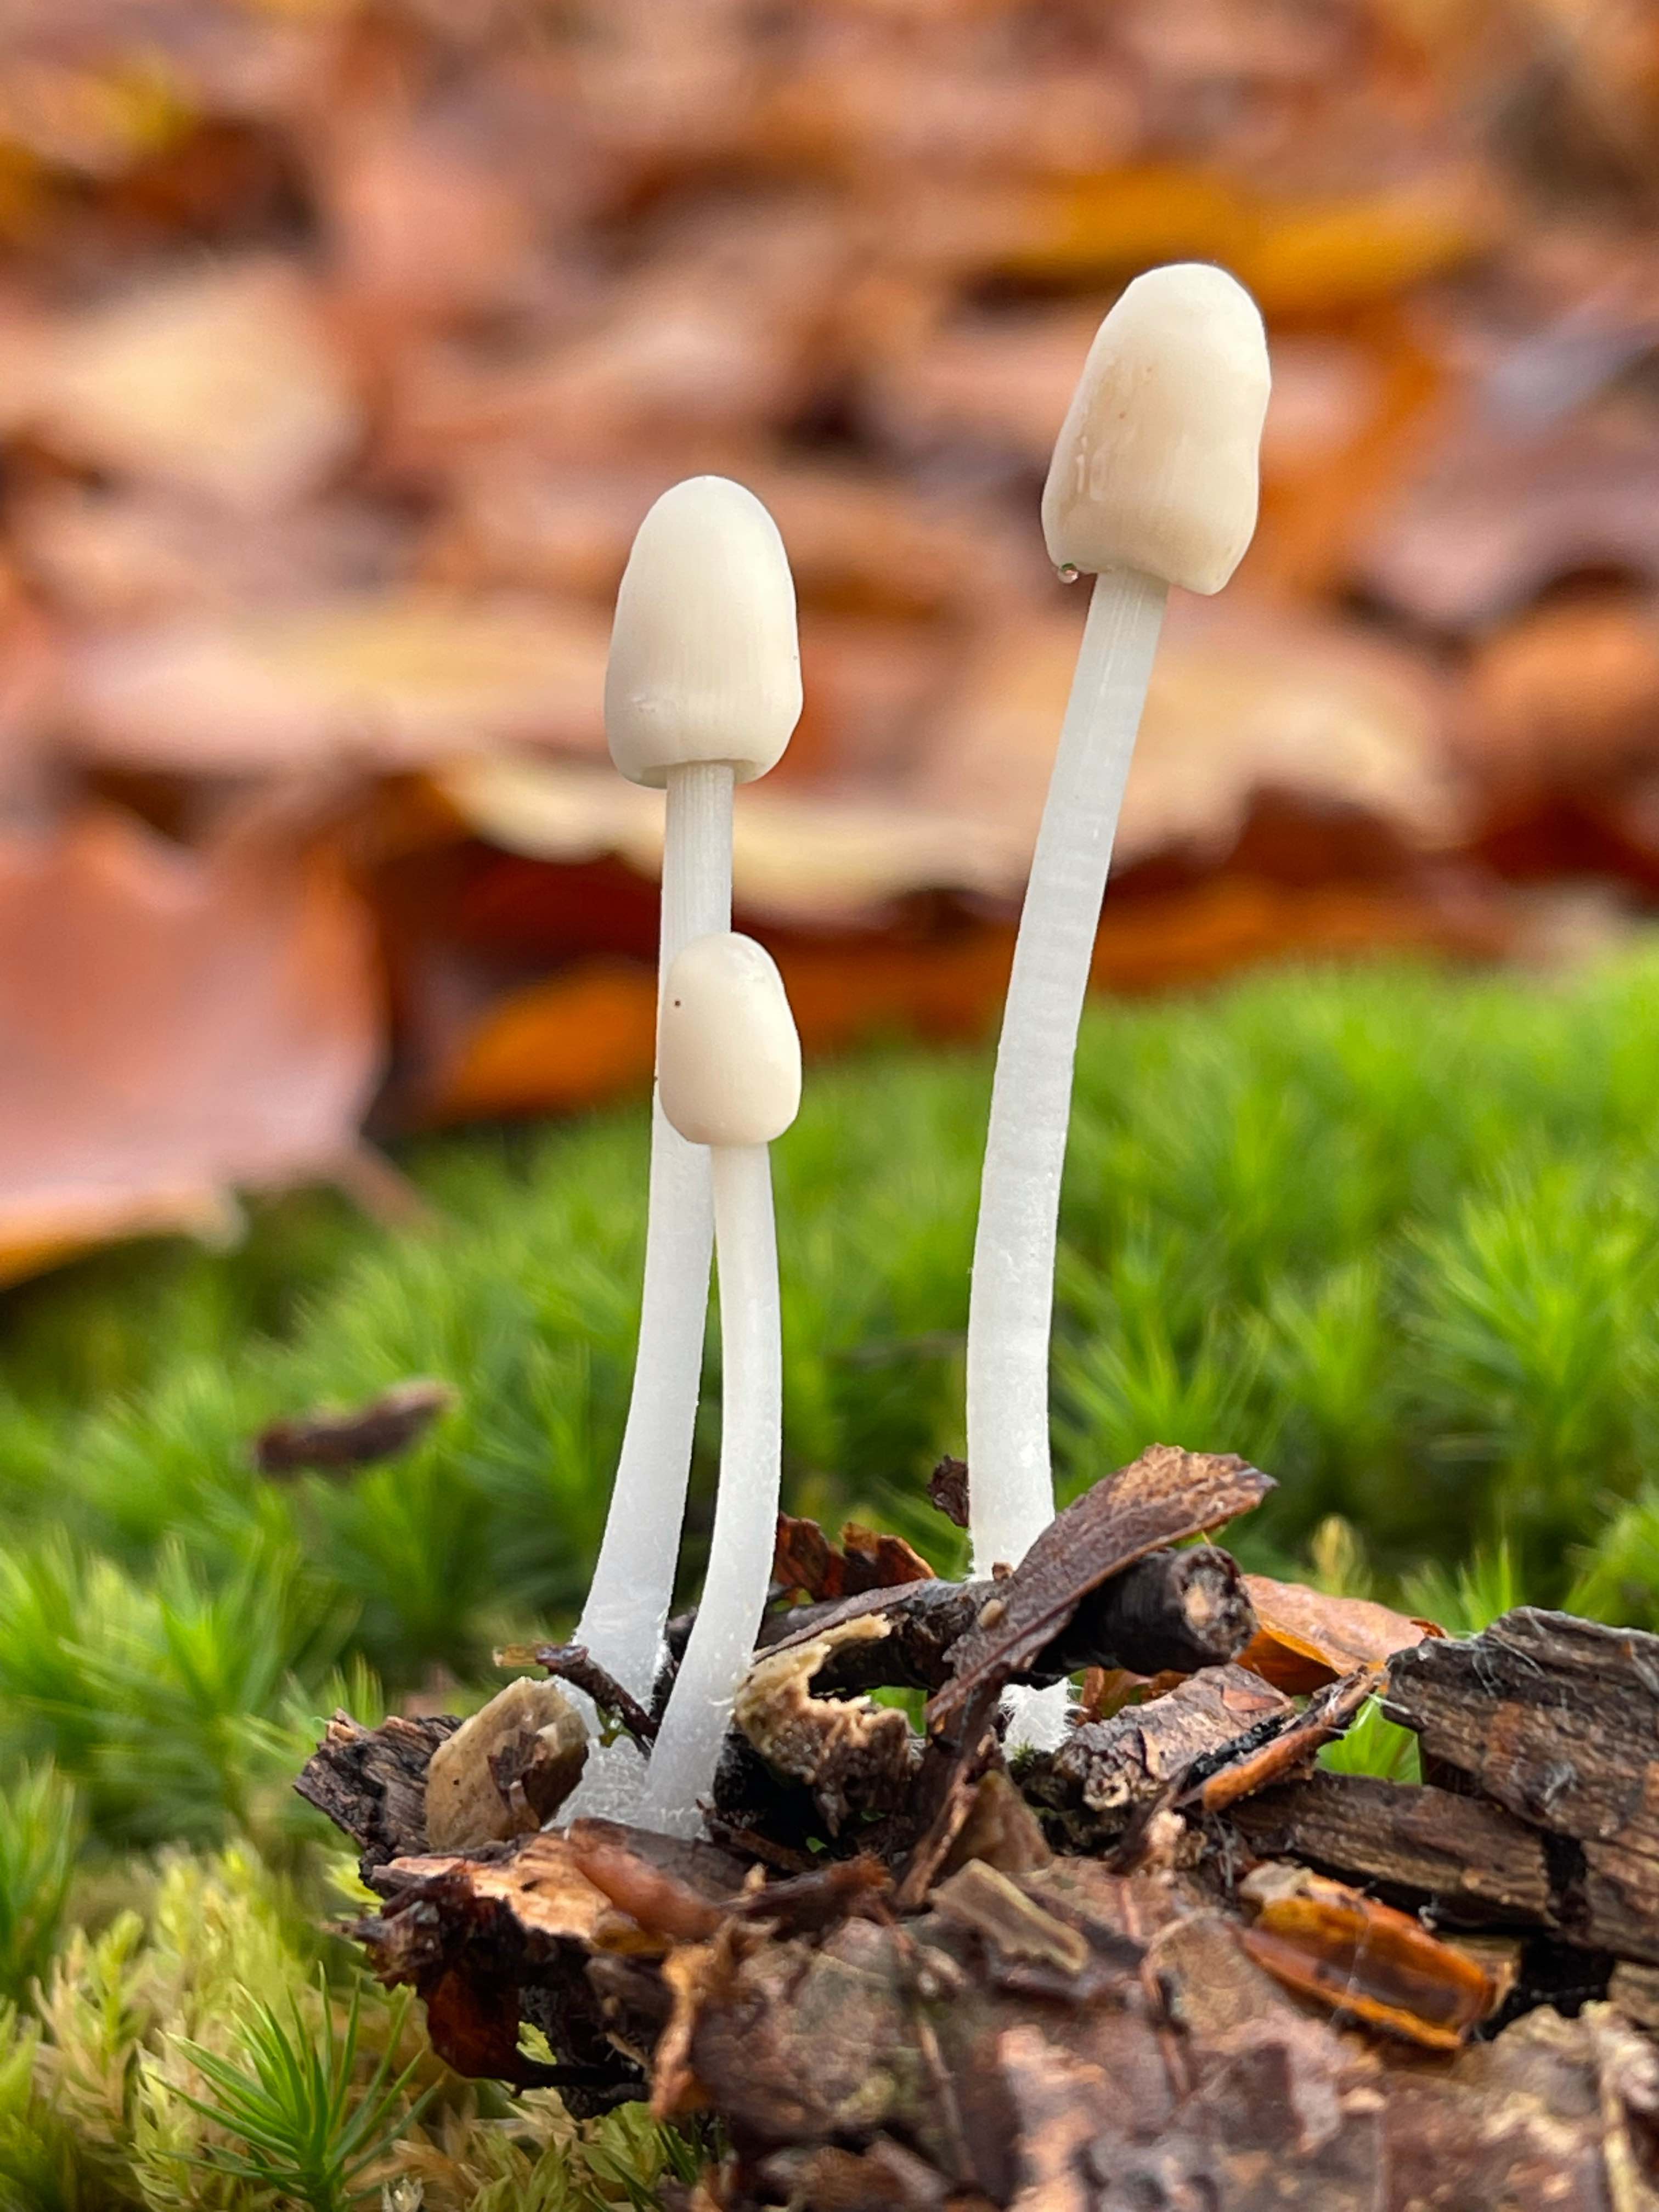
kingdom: Fungi
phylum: Basidiomycota
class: Agaricomycetes
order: Agaricales
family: Mycenaceae
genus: Mycena
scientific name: Mycena
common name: huesvamp
